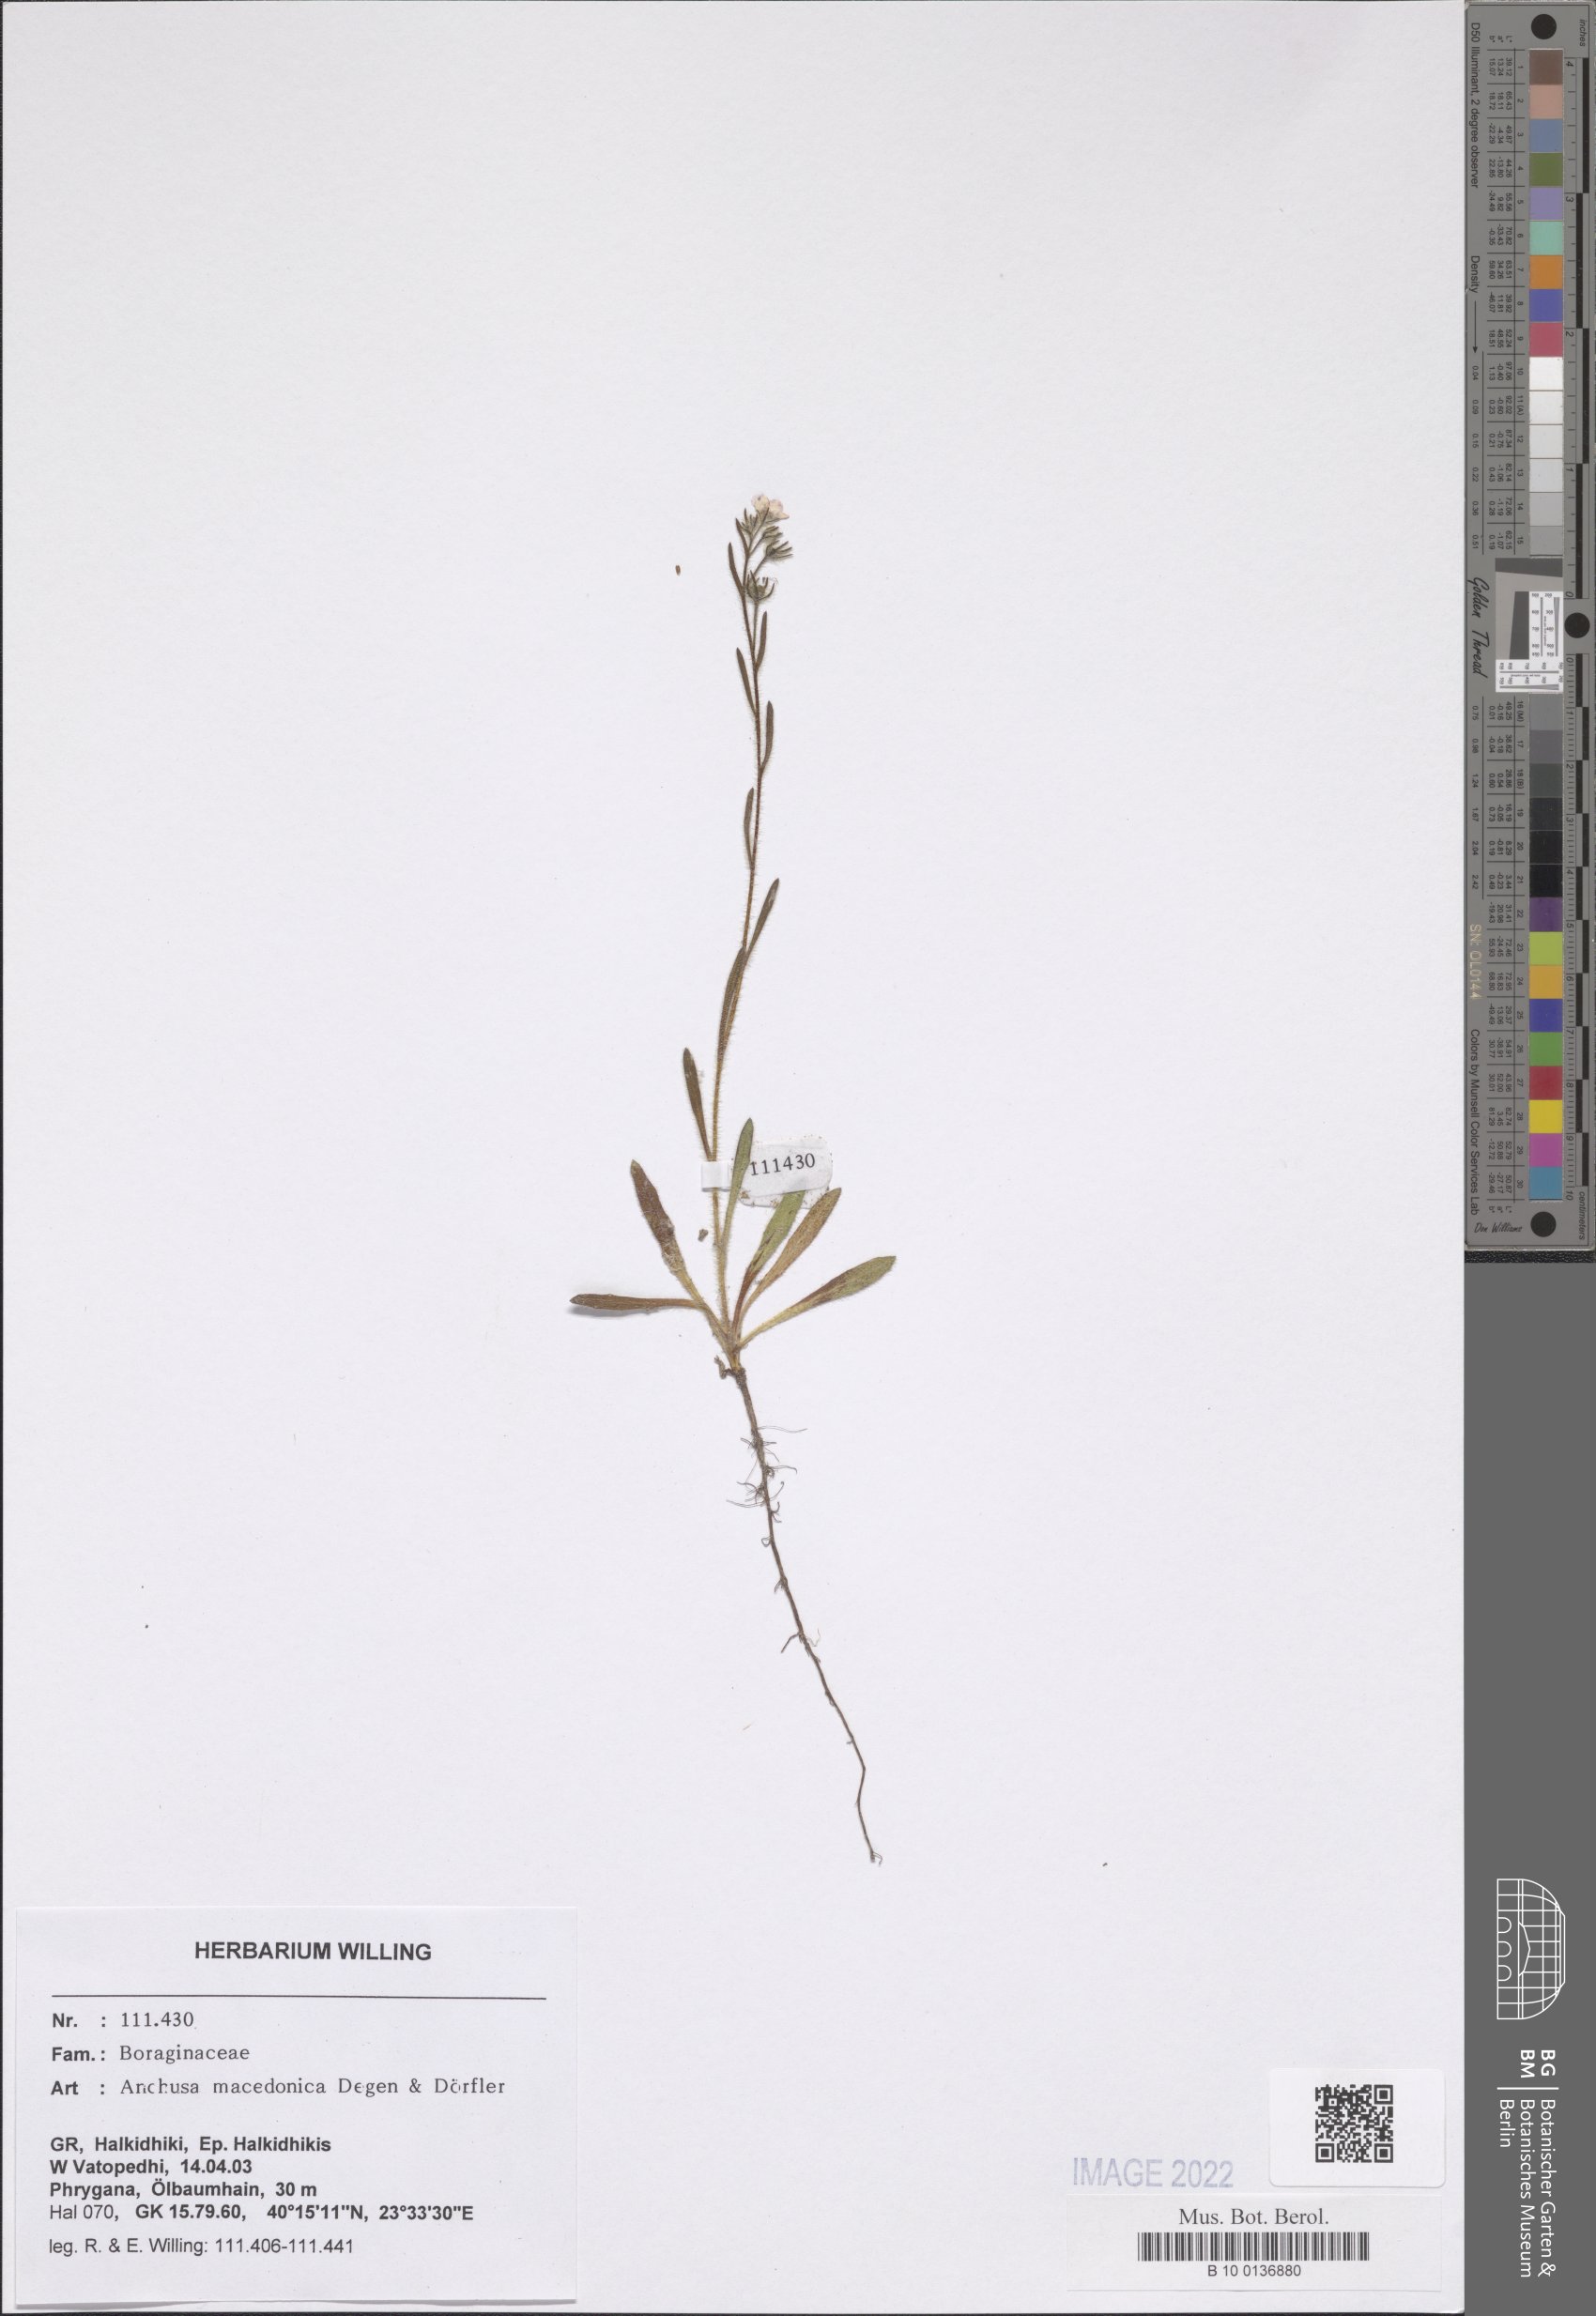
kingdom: Plantae
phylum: Tracheophyta
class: Magnoliopsida
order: Boraginales
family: Boraginaceae
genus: Anchusa
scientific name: Anchusa officinalis
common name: Alkanet
